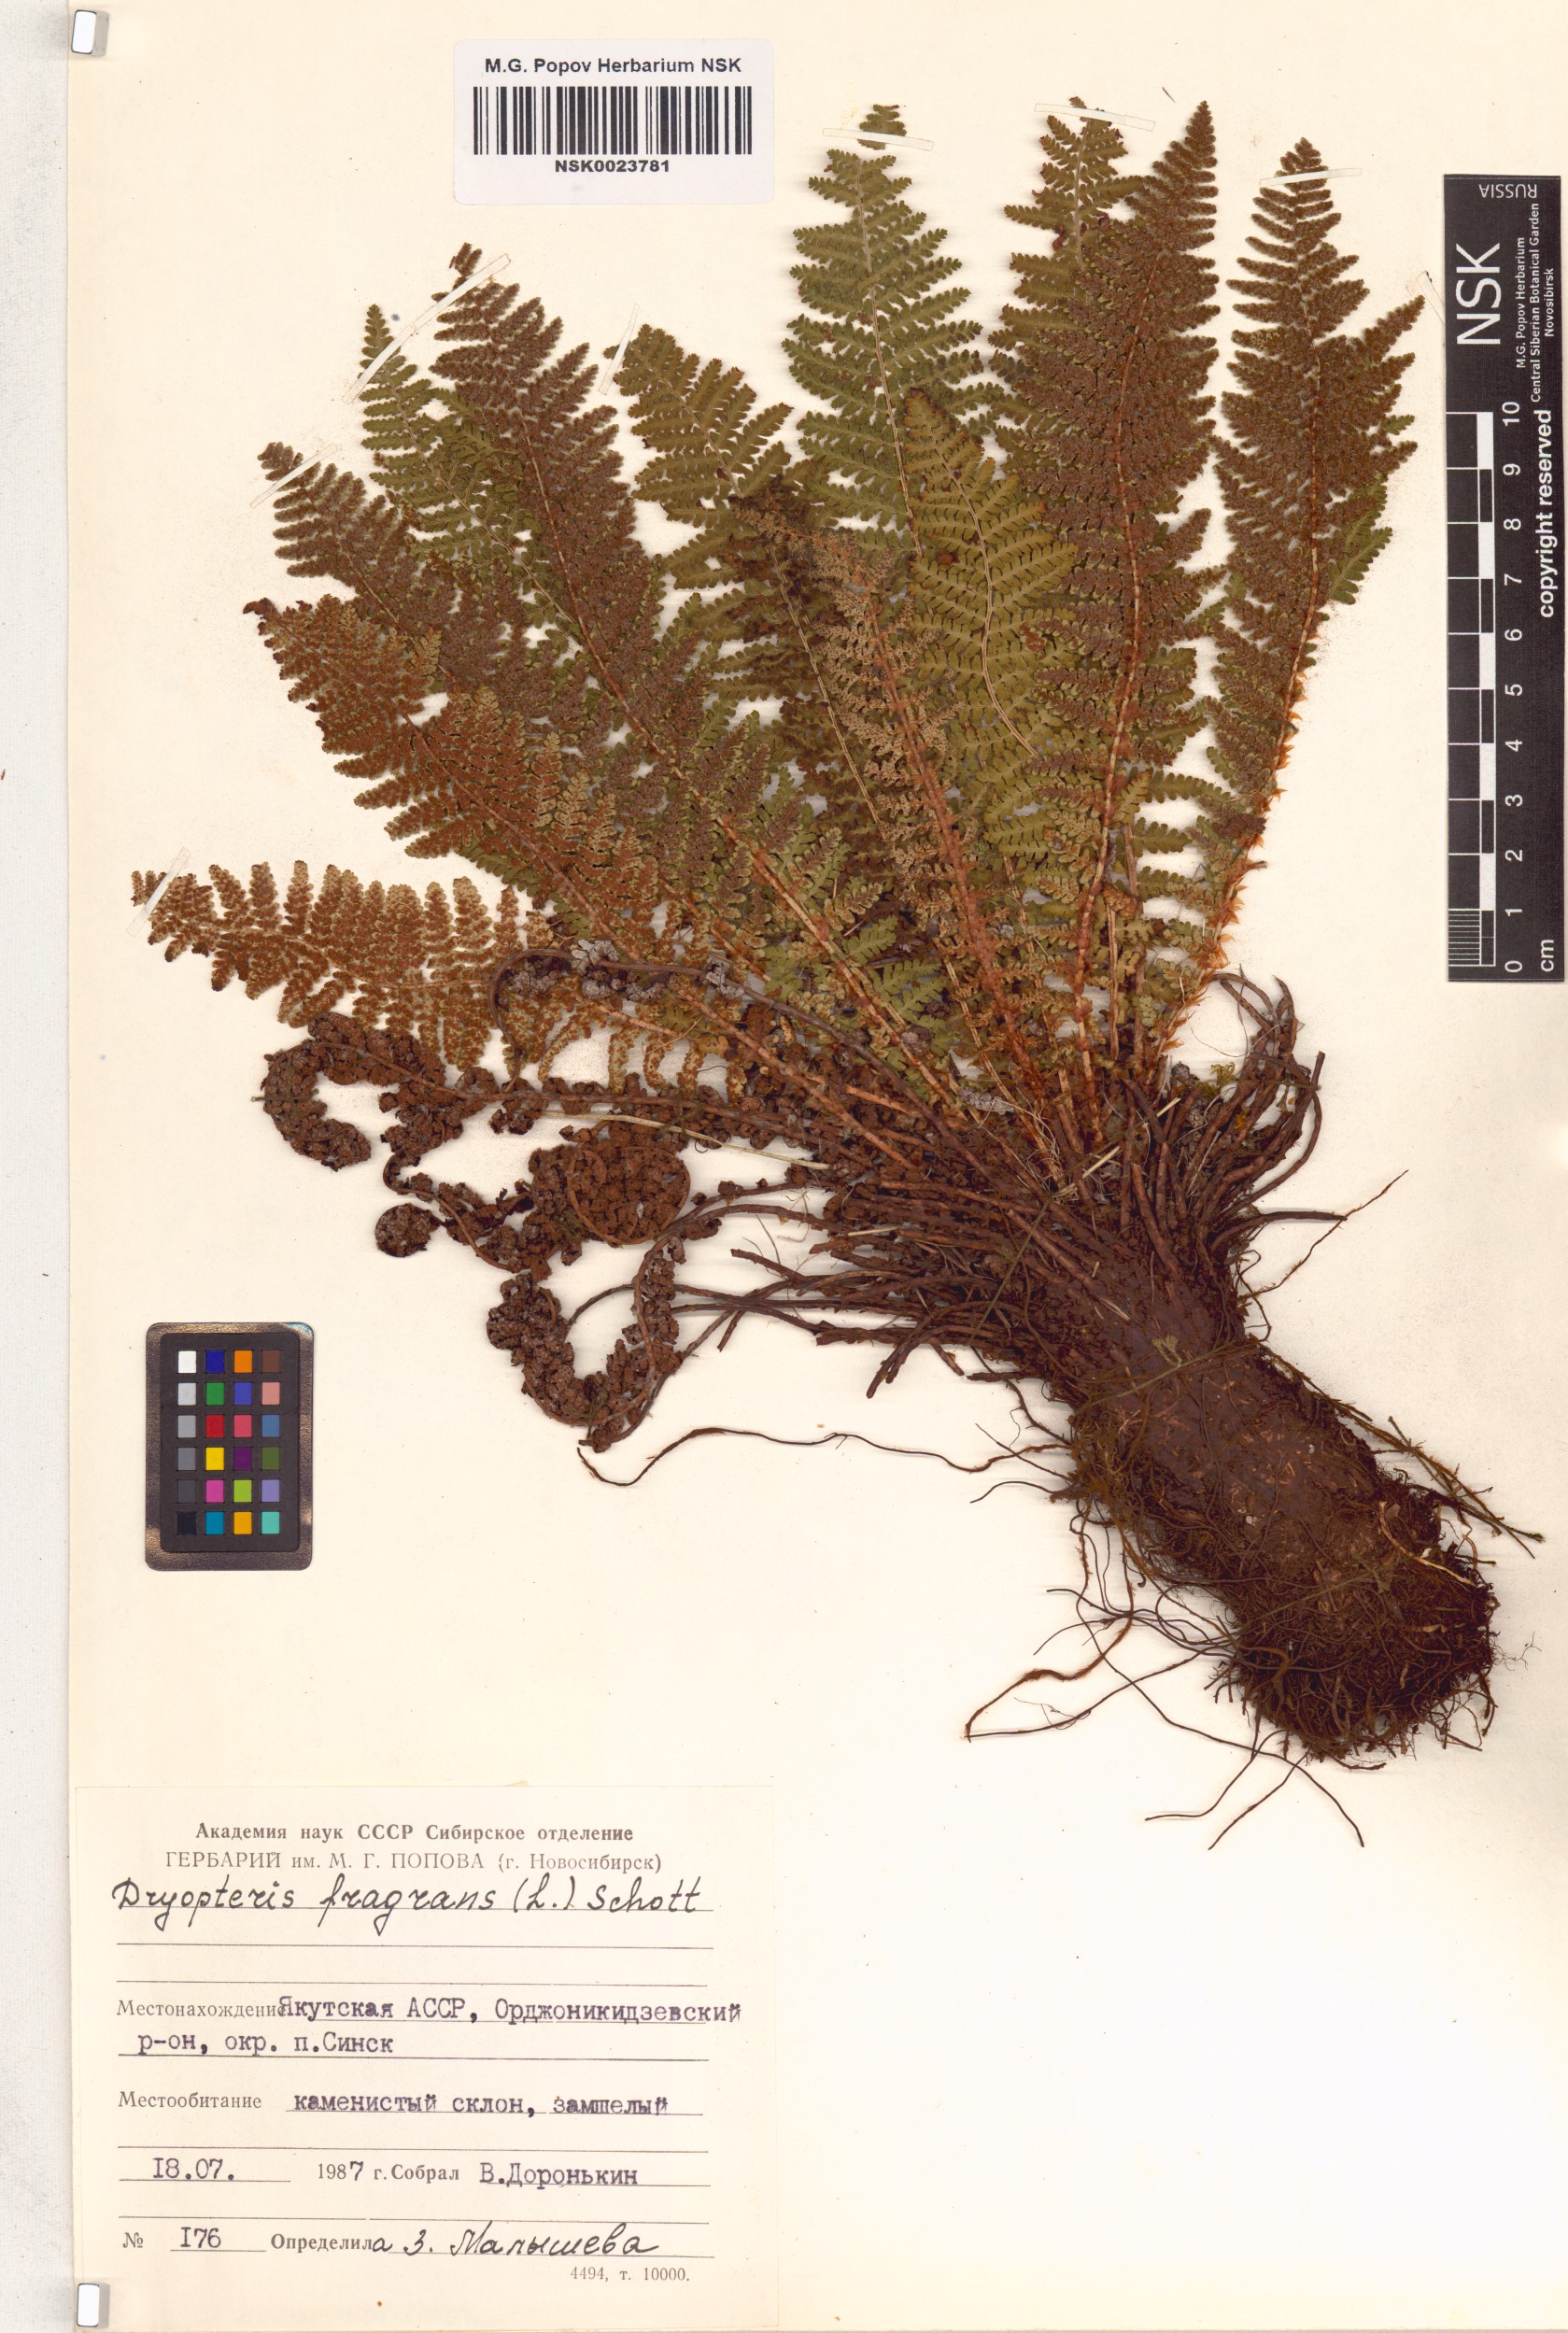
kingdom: Plantae
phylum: Tracheophyta
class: Polypodiopsida
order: Polypodiales
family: Dryopteridaceae
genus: Dryopteris
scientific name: Dryopteris fragrans
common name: Fragrant wood fern
